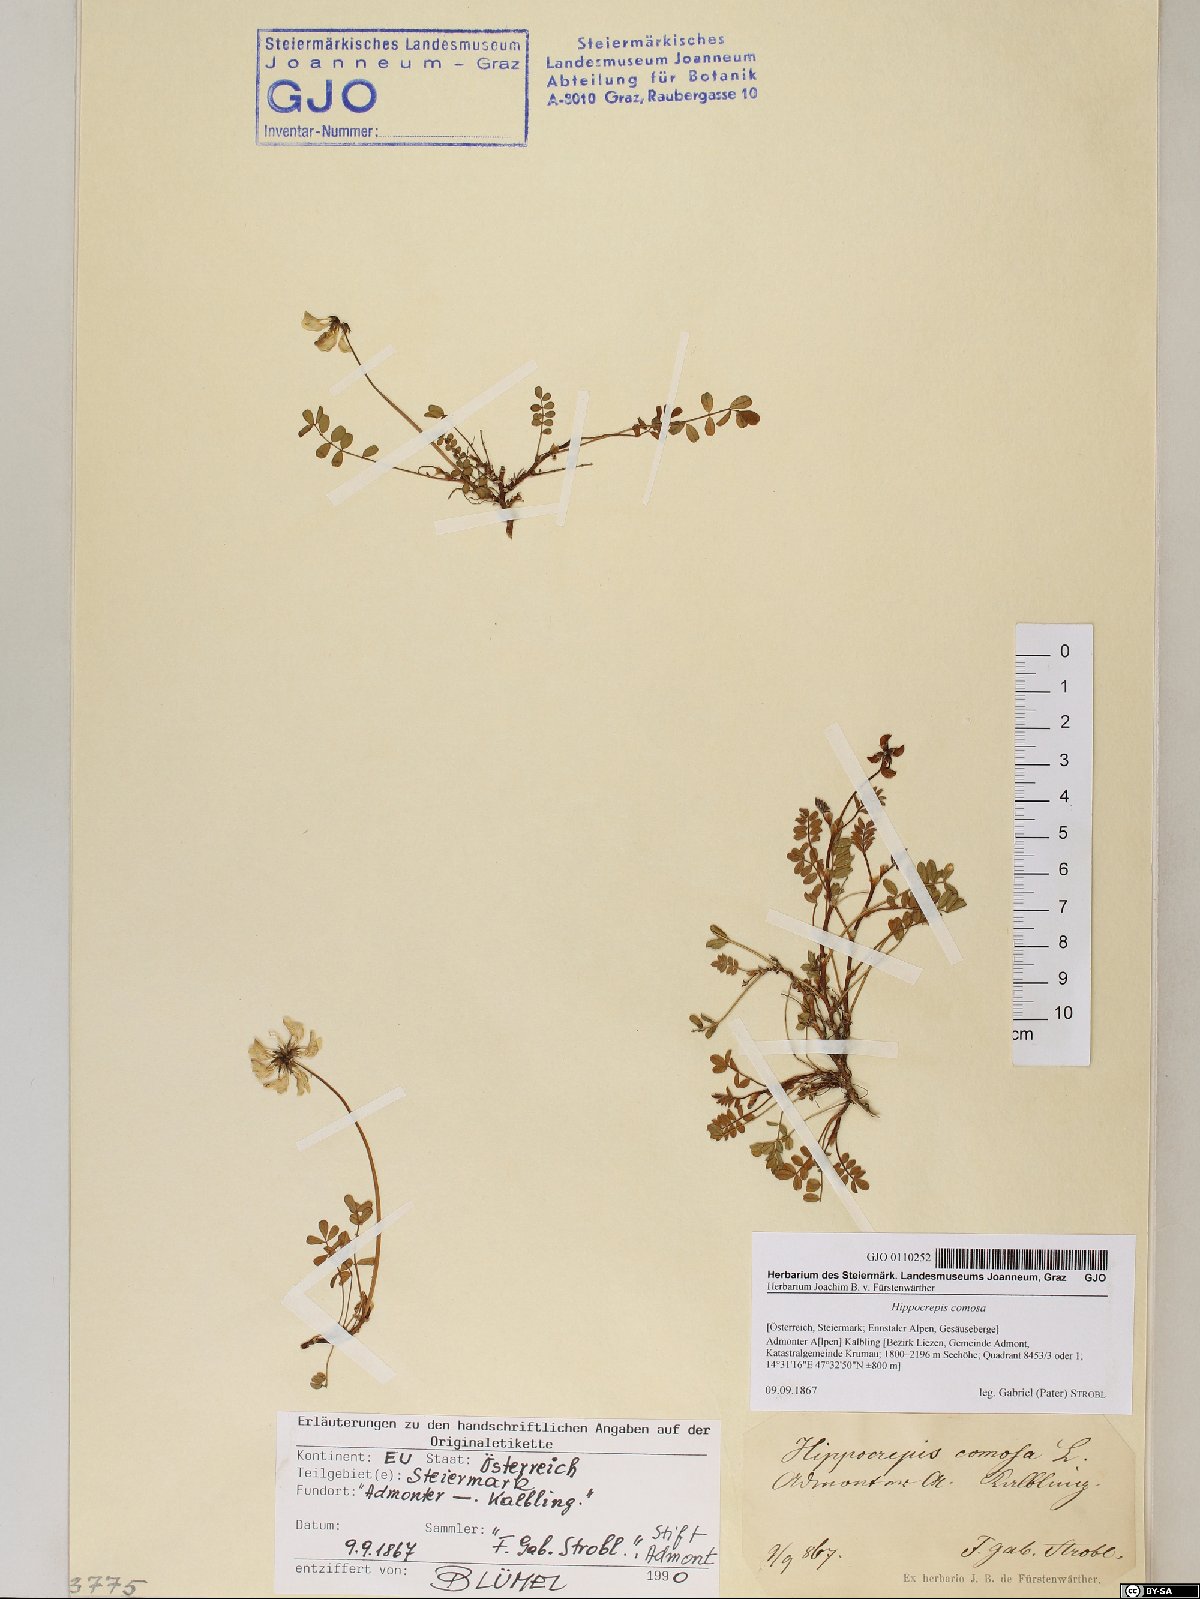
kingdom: Plantae
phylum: Tracheophyta
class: Magnoliopsida
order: Fabales
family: Fabaceae
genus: Hippocrepis
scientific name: Hippocrepis comosa
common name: Horseshoe vetch
